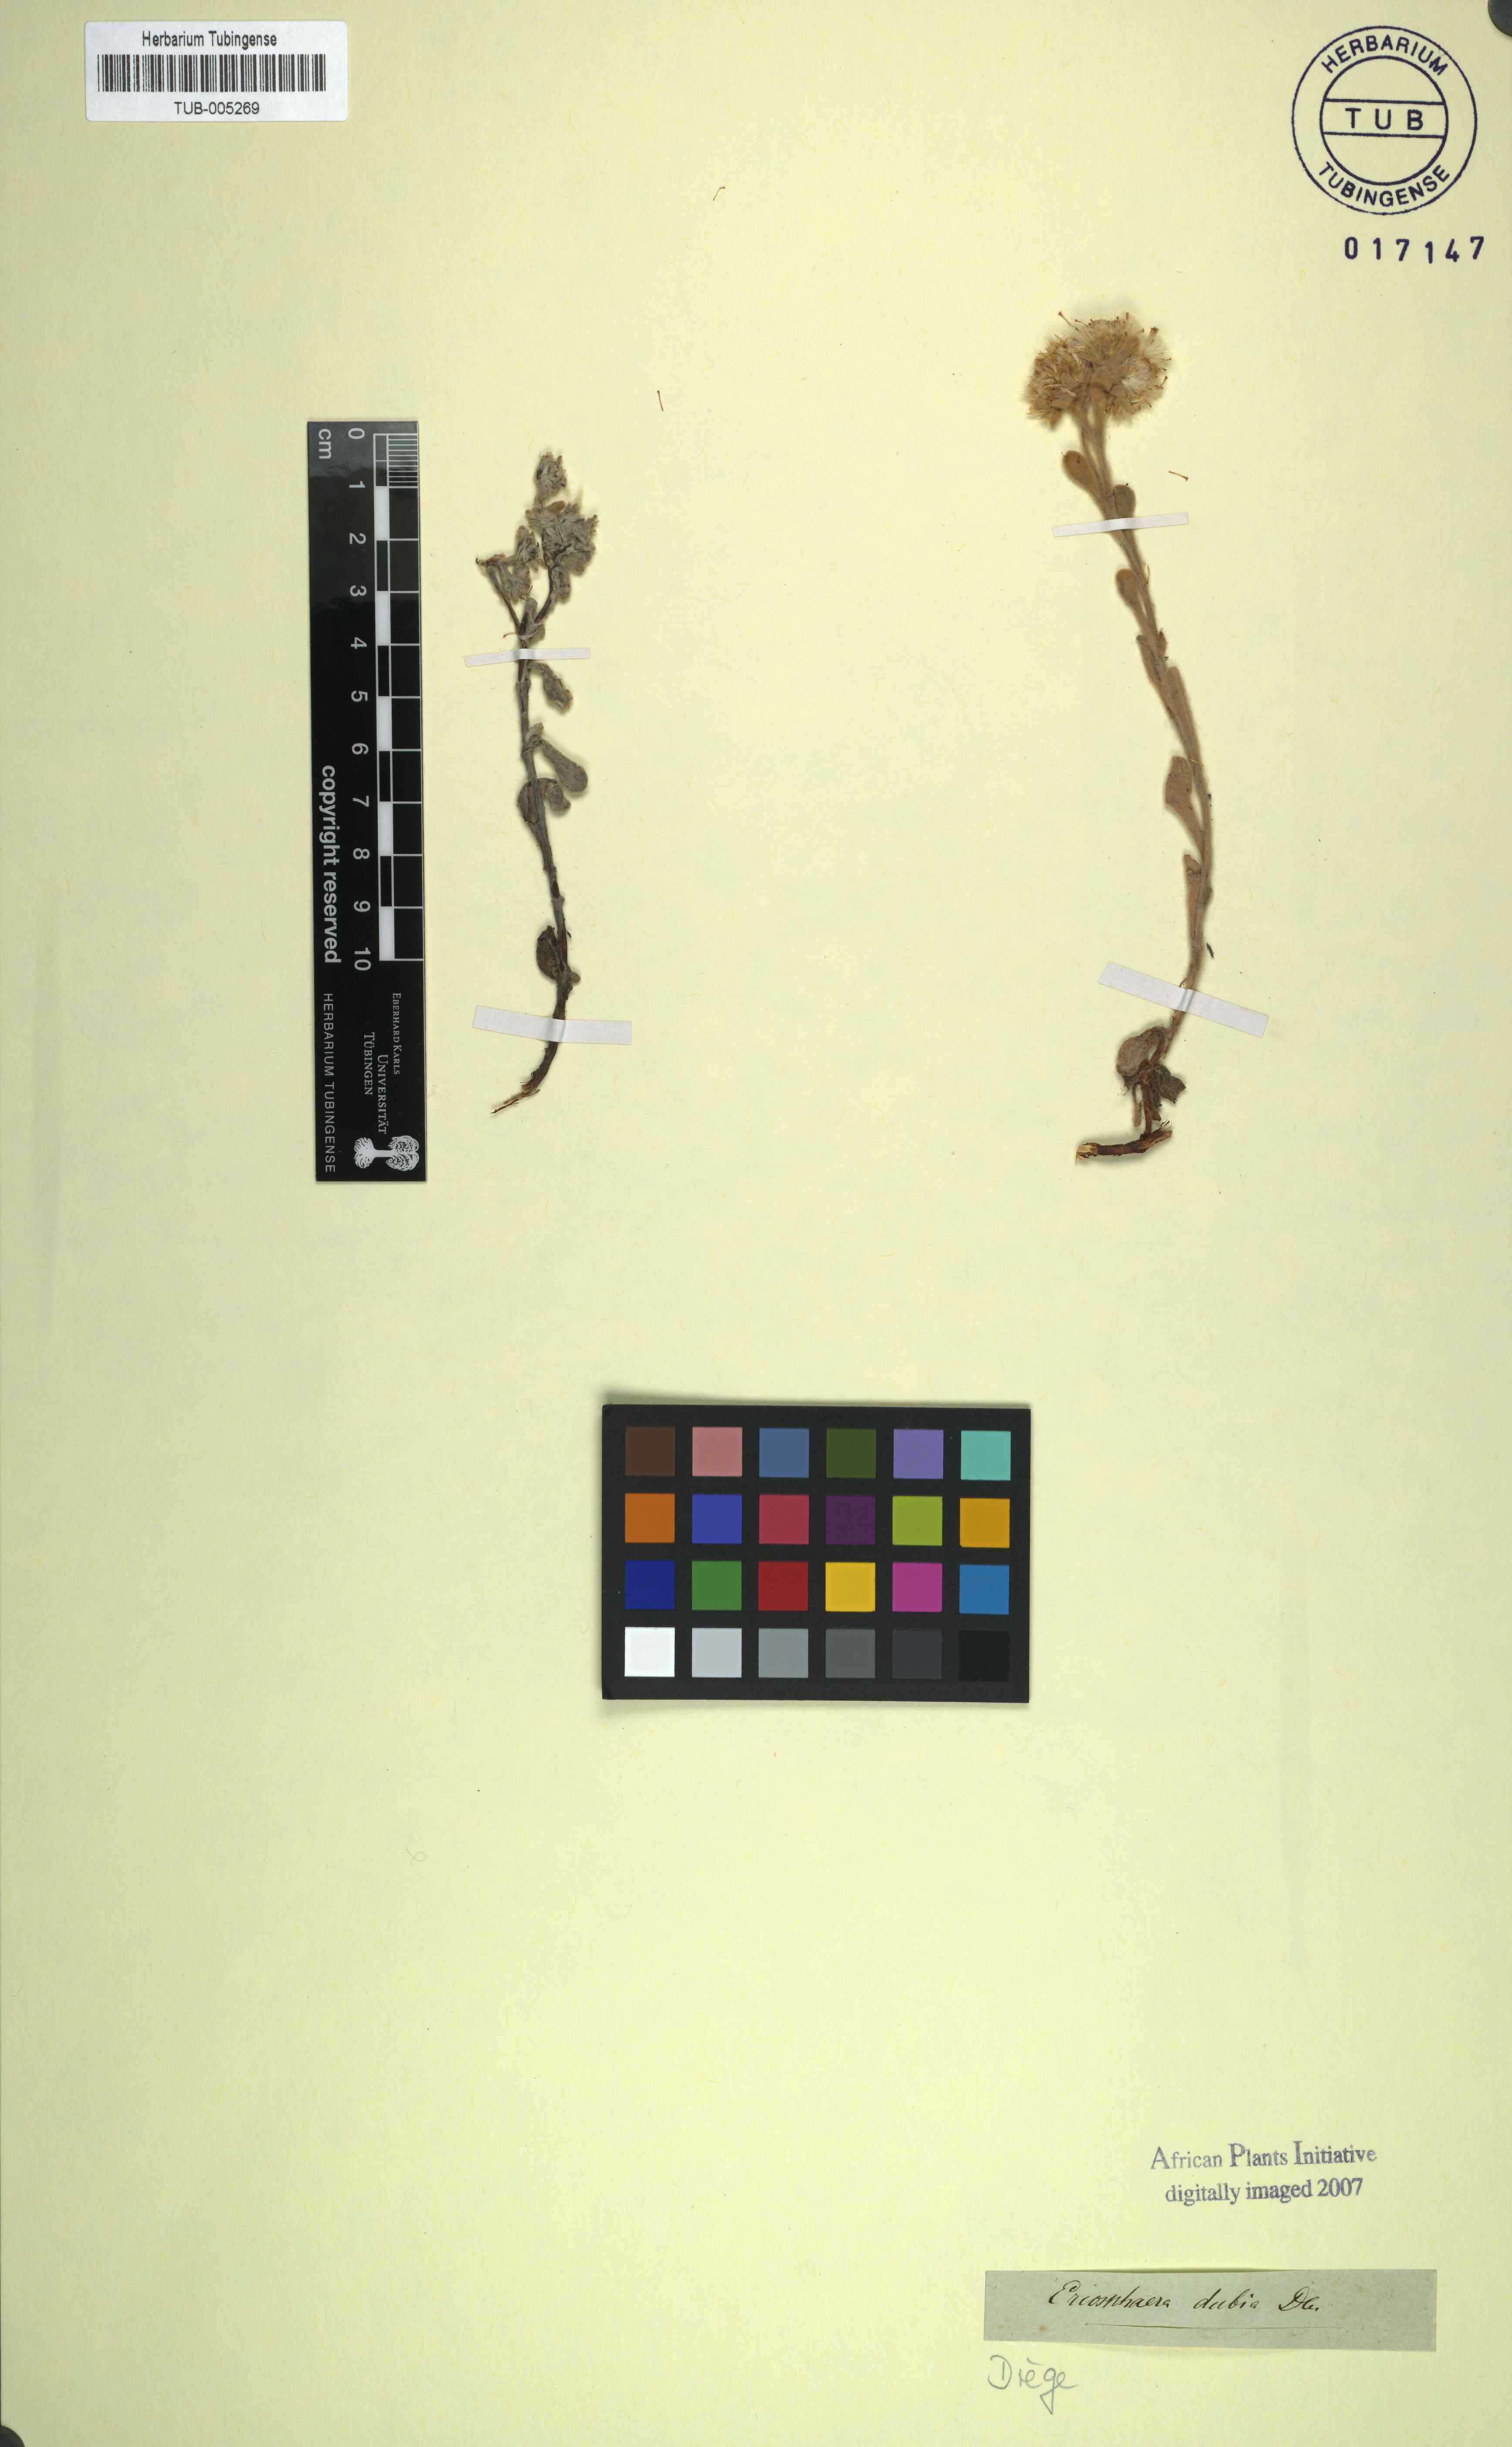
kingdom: Plantae
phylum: Tracheophyta
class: Magnoliopsida
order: Asterales
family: Asteraceae
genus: Helichrysum
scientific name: Helichrysum spiralepis
